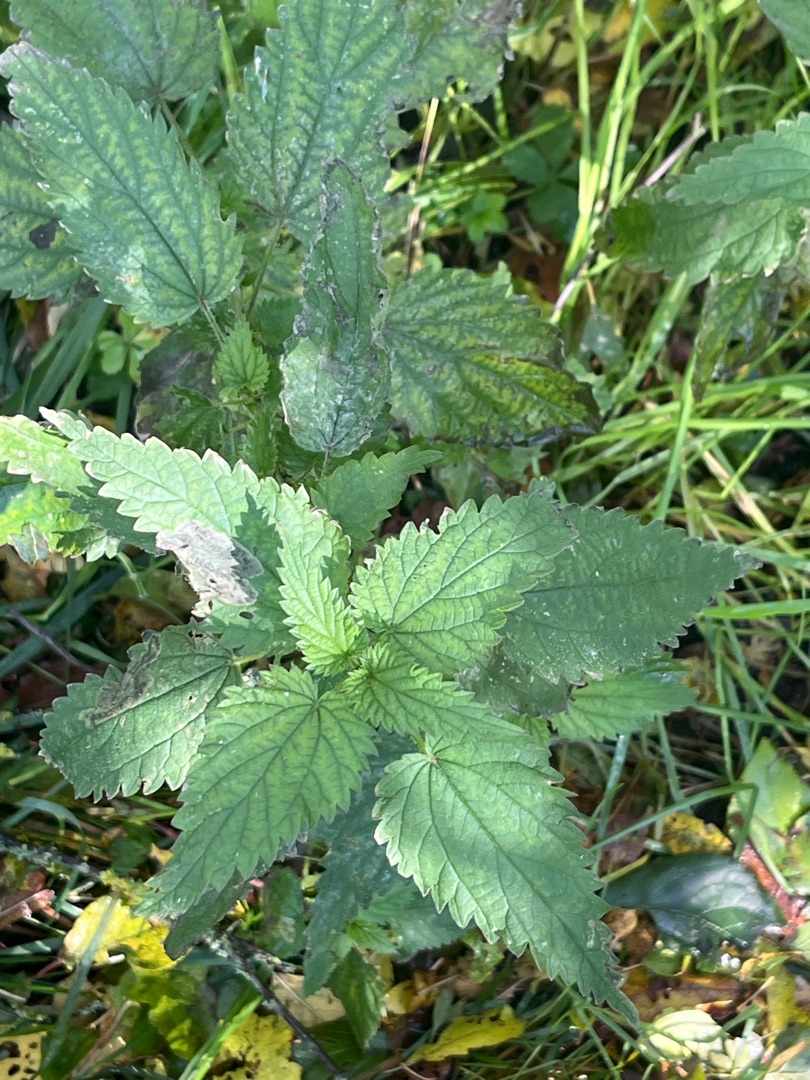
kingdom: Plantae
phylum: Tracheophyta
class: Magnoliopsida
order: Rosales
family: Urticaceae
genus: Urtica
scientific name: Urtica dioica
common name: Stor nælde
